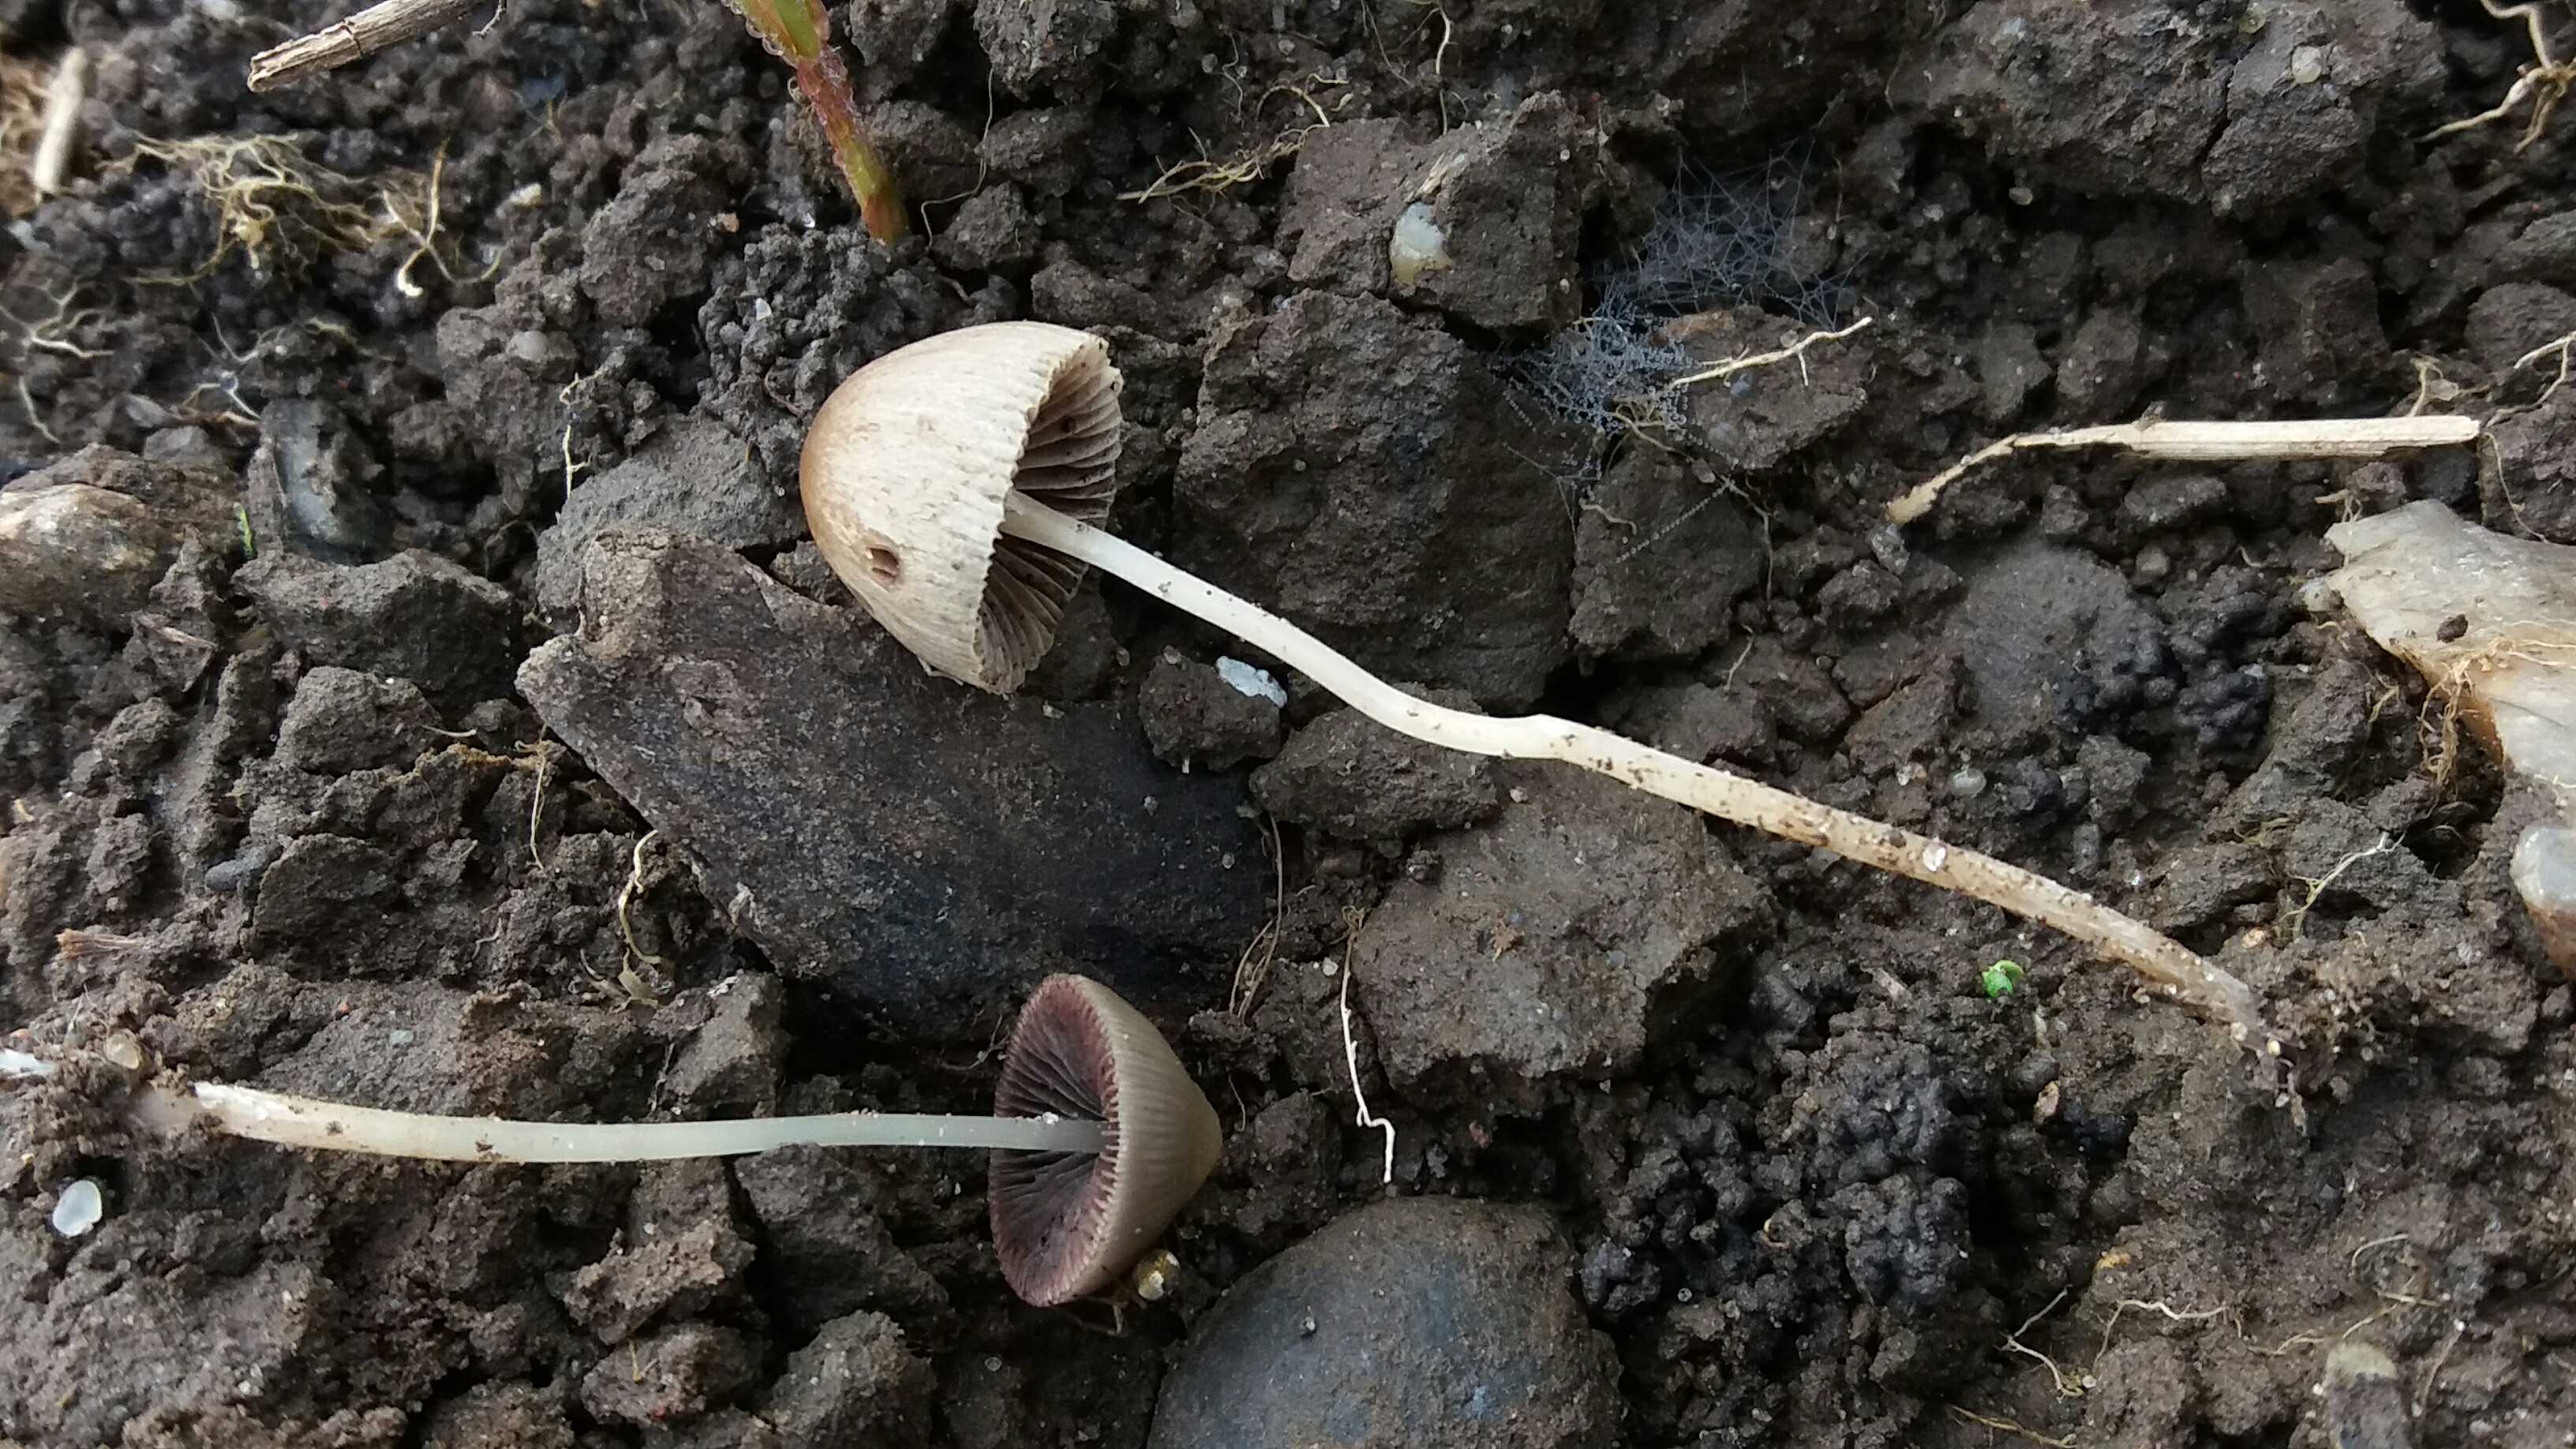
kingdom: Fungi
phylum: Basidiomycota
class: Agaricomycetes
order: Agaricales
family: Psathyrellaceae
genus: Parasola
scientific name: Parasola conopilea
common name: kegle-hjulhat
